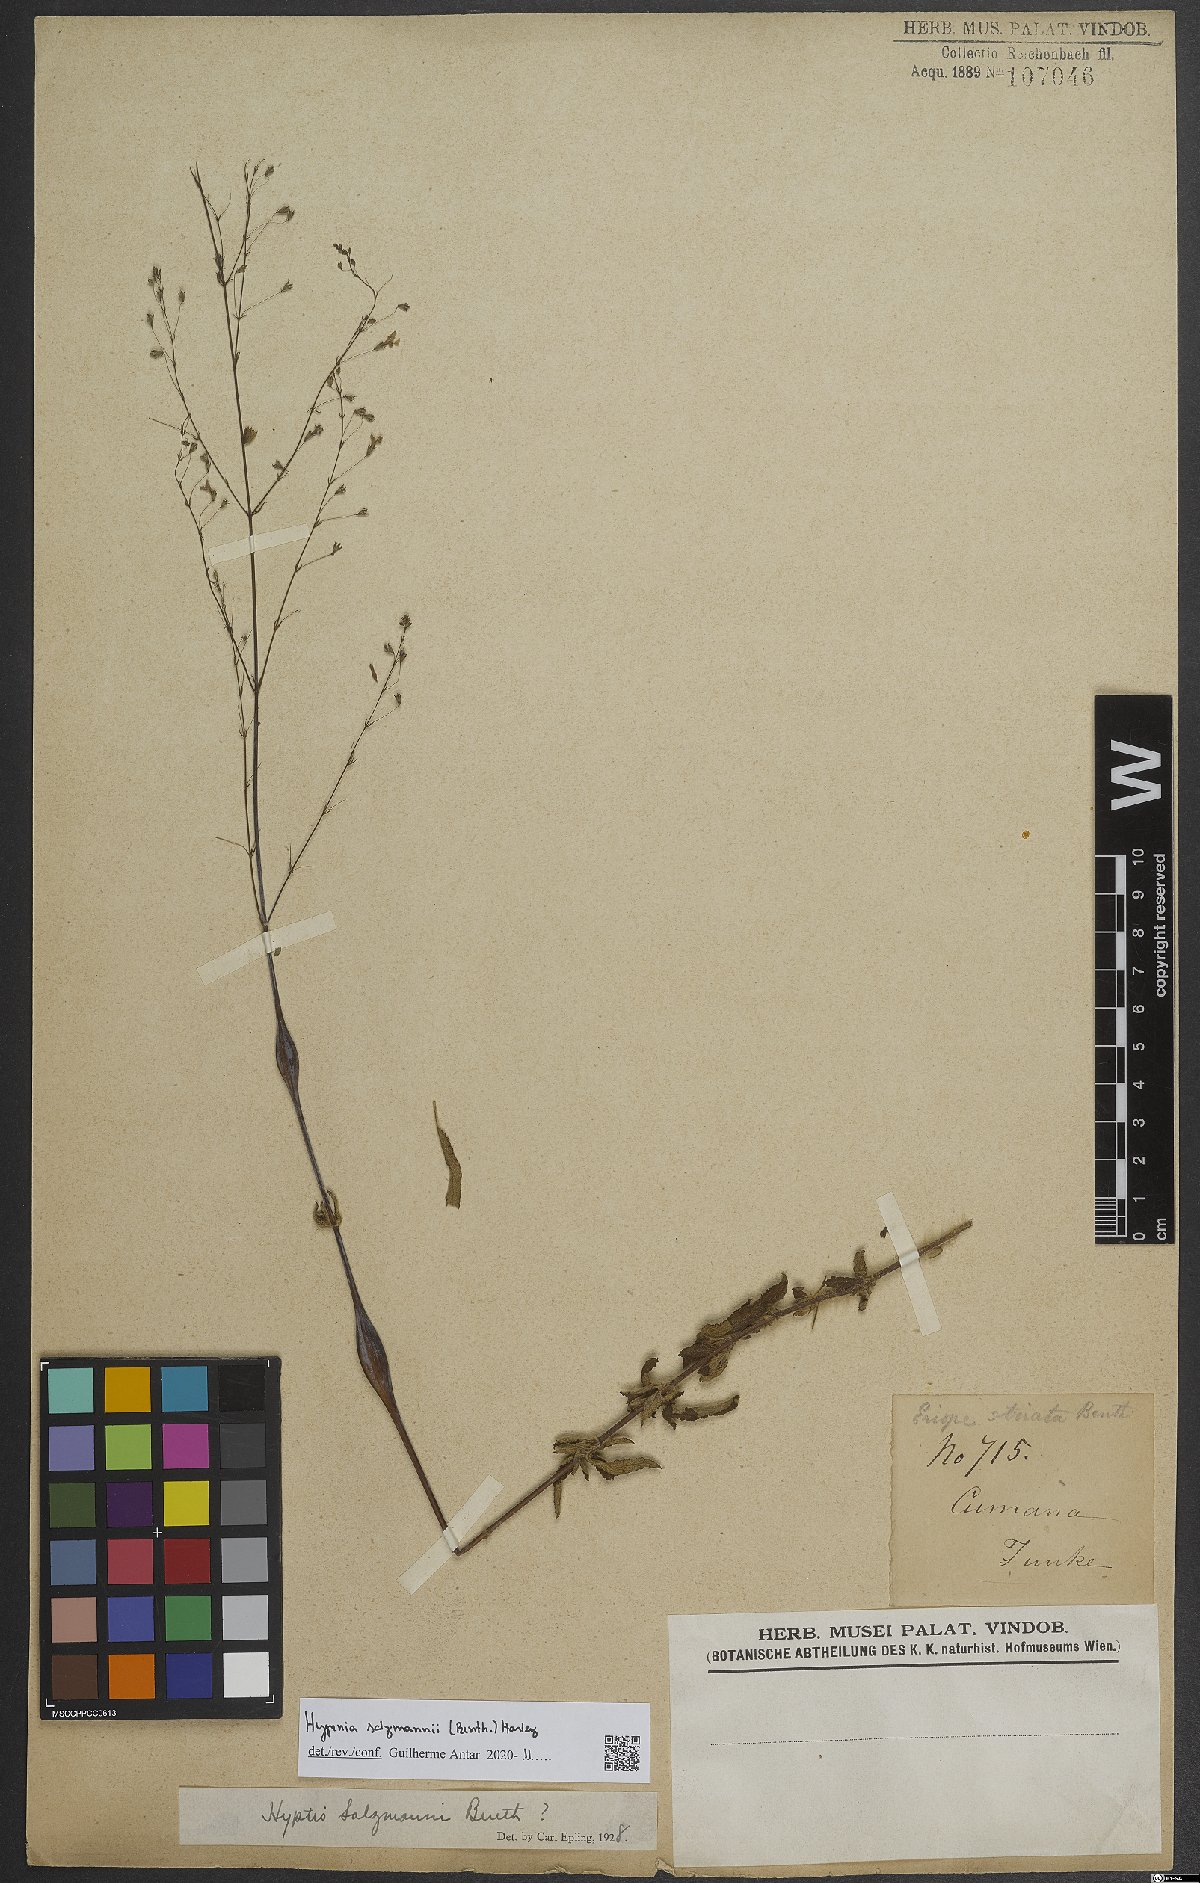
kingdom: Plantae
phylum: Tracheophyta
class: Magnoliopsida
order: Lamiales
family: Lamiaceae
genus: Hypenia
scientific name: Hypenia salzmannii
